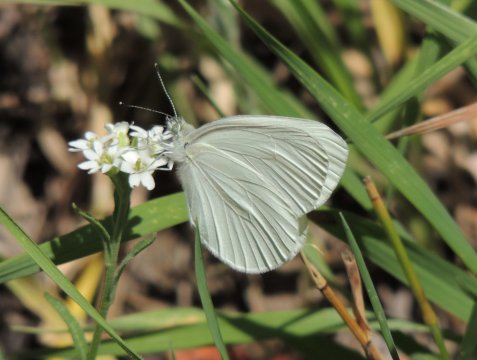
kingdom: Animalia
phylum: Arthropoda
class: Insecta
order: Lepidoptera
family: Pieridae
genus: Pieris
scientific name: Pieris marginalis
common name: Margined White
